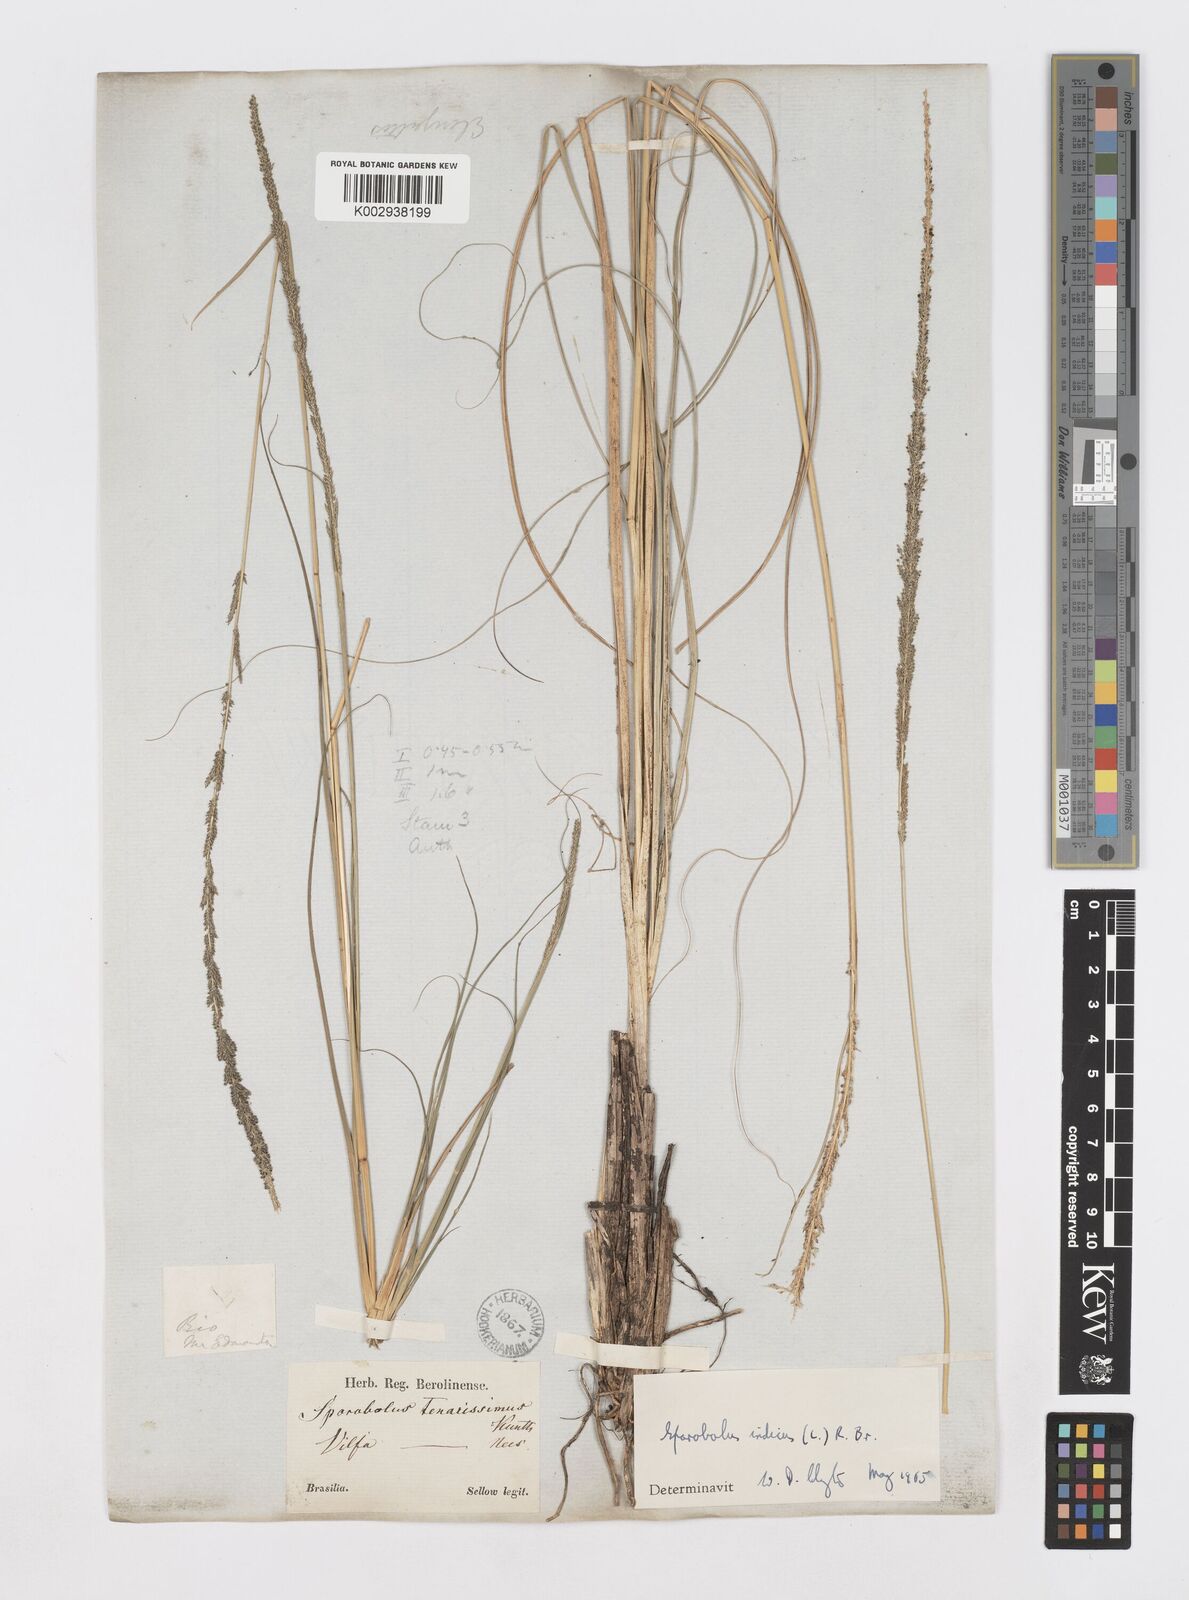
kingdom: Plantae
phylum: Tracheophyta
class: Liliopsida
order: Poales
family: Poaceae
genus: Sporobolus
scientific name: Sporobolus indicus
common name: Smut grass
